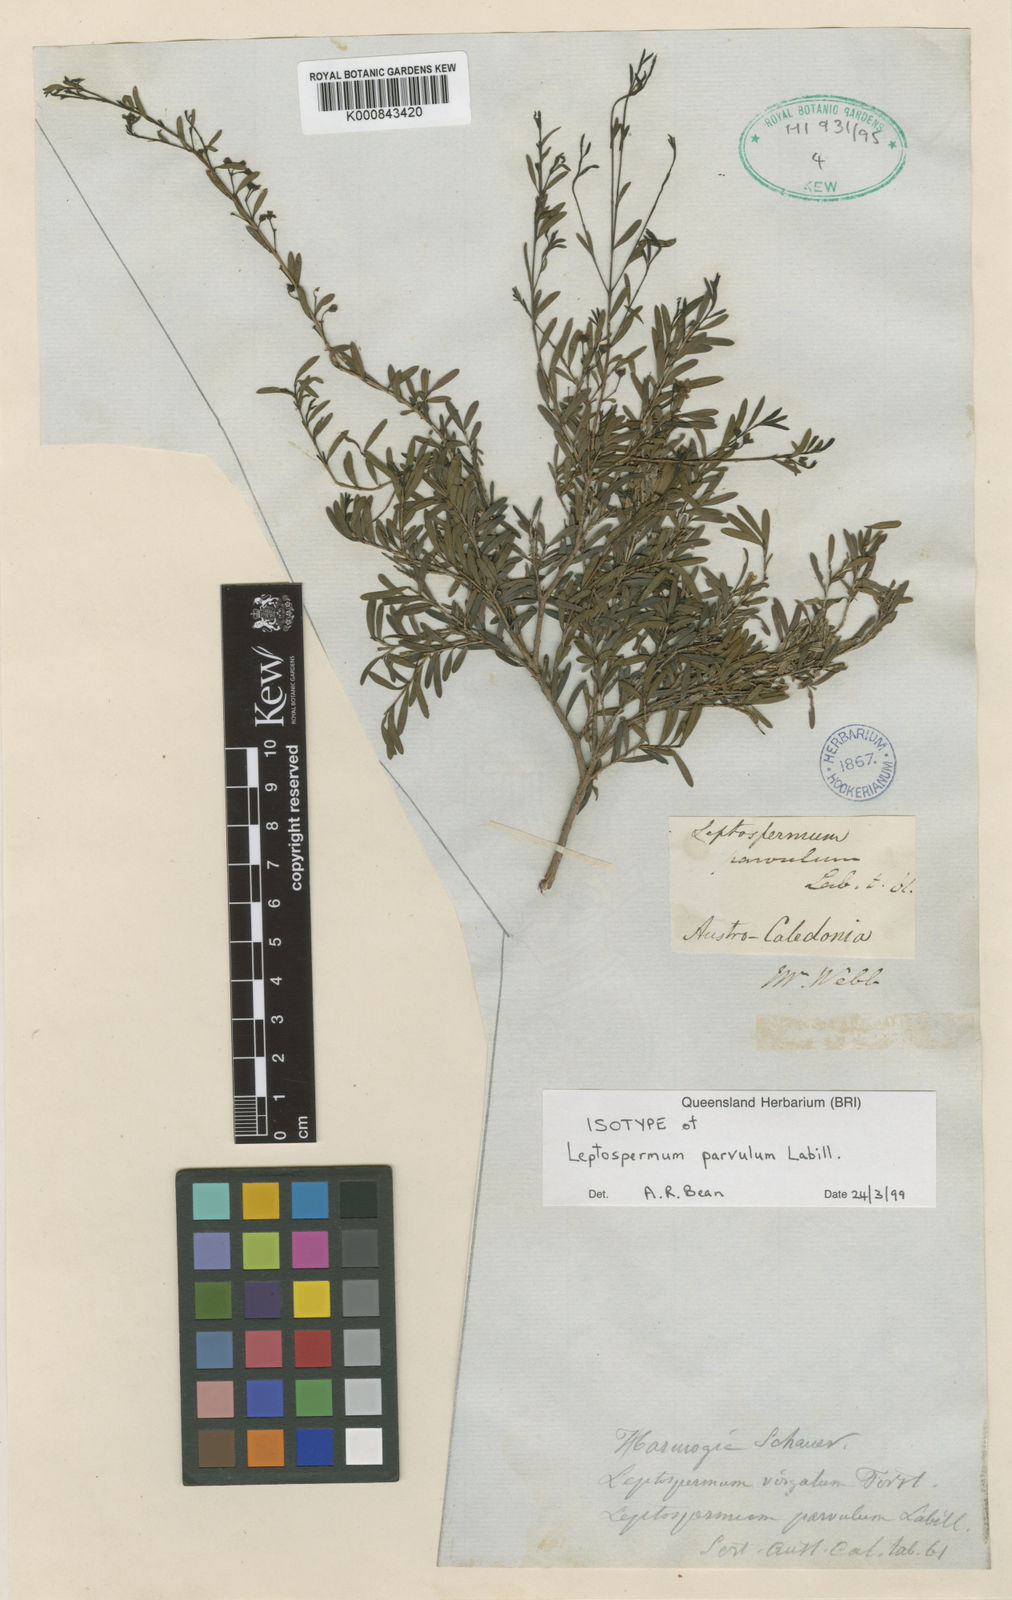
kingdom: Plantae
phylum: Tracheophyta
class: Magnoliopsida
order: Myrtales
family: Myrtaceae
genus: Sannantha
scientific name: Sannantha virgata
